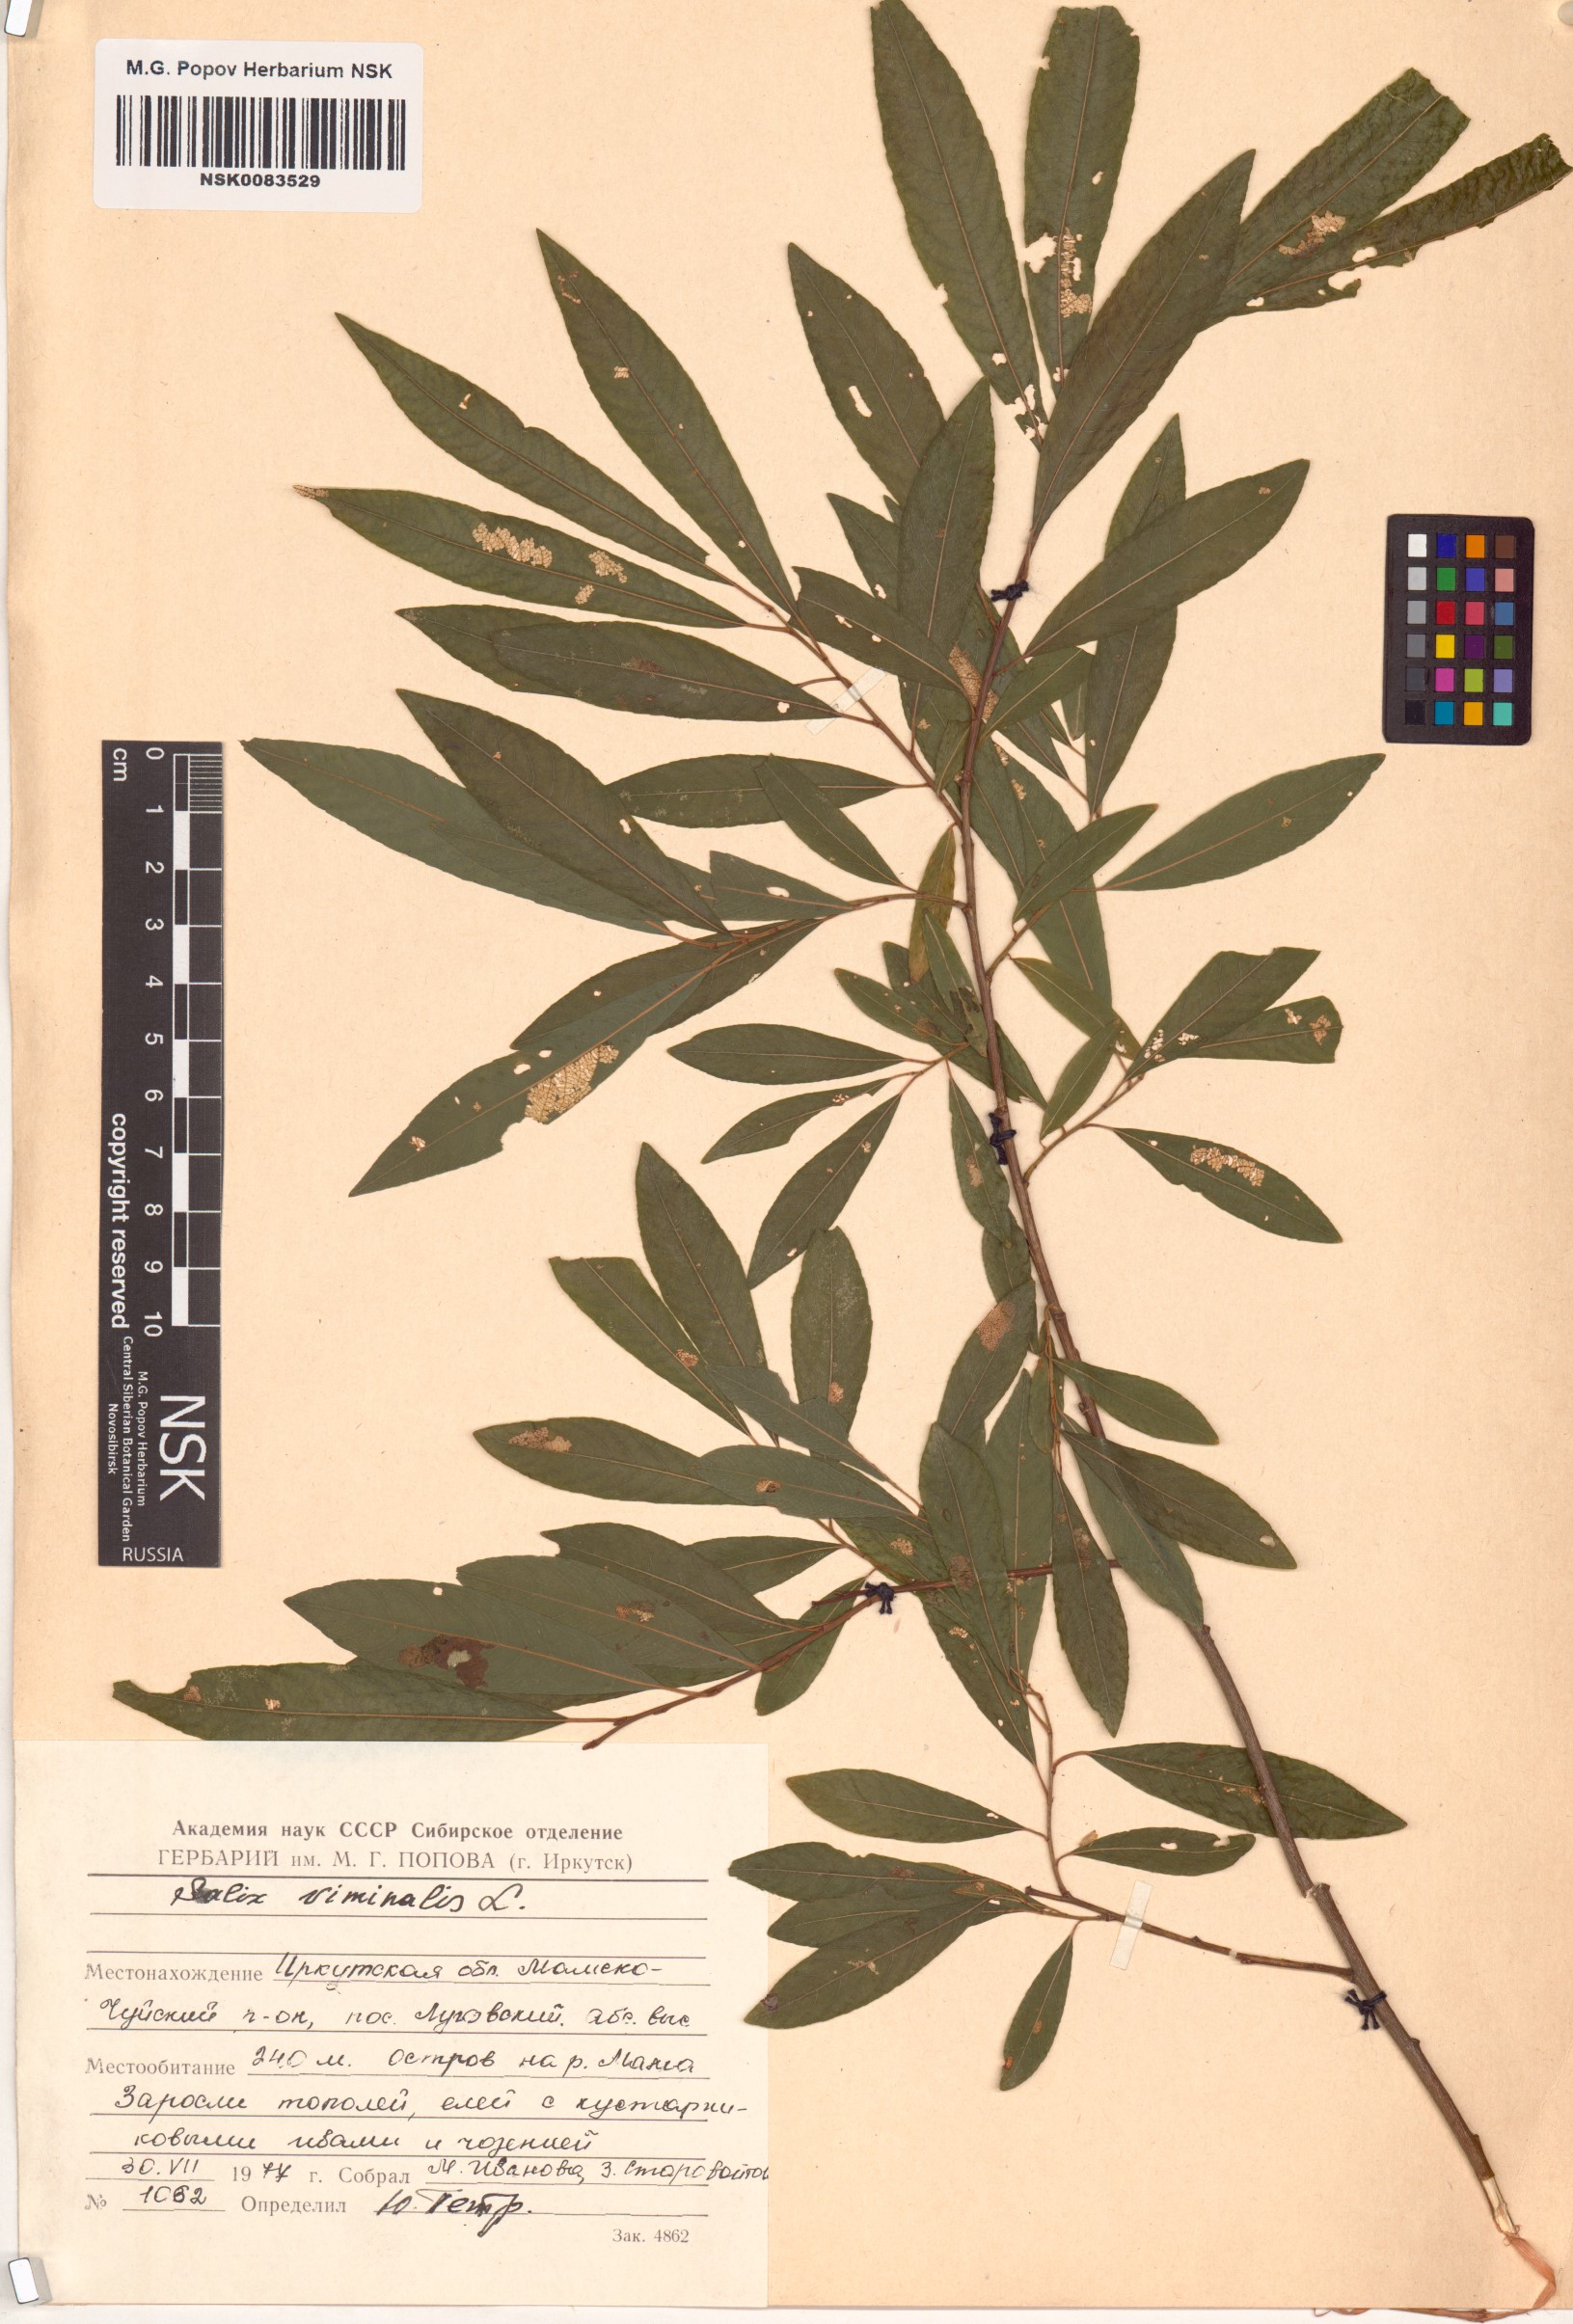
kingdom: Plantae
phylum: Tracheophyta
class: Magnoliopsida
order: Malpighiales
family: Salicaceae
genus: Salix
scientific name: Salix viminalis
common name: Osier
